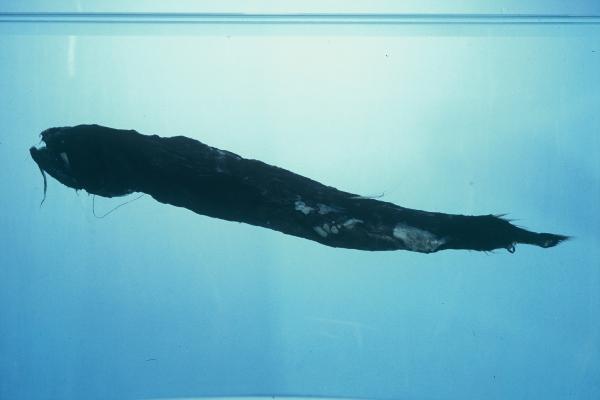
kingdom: Animalia
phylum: Chordata
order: Stomiiformes
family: Stomiidae
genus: Echiostoma
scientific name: Echiostoma barbatum
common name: Threadfin dragonfish
